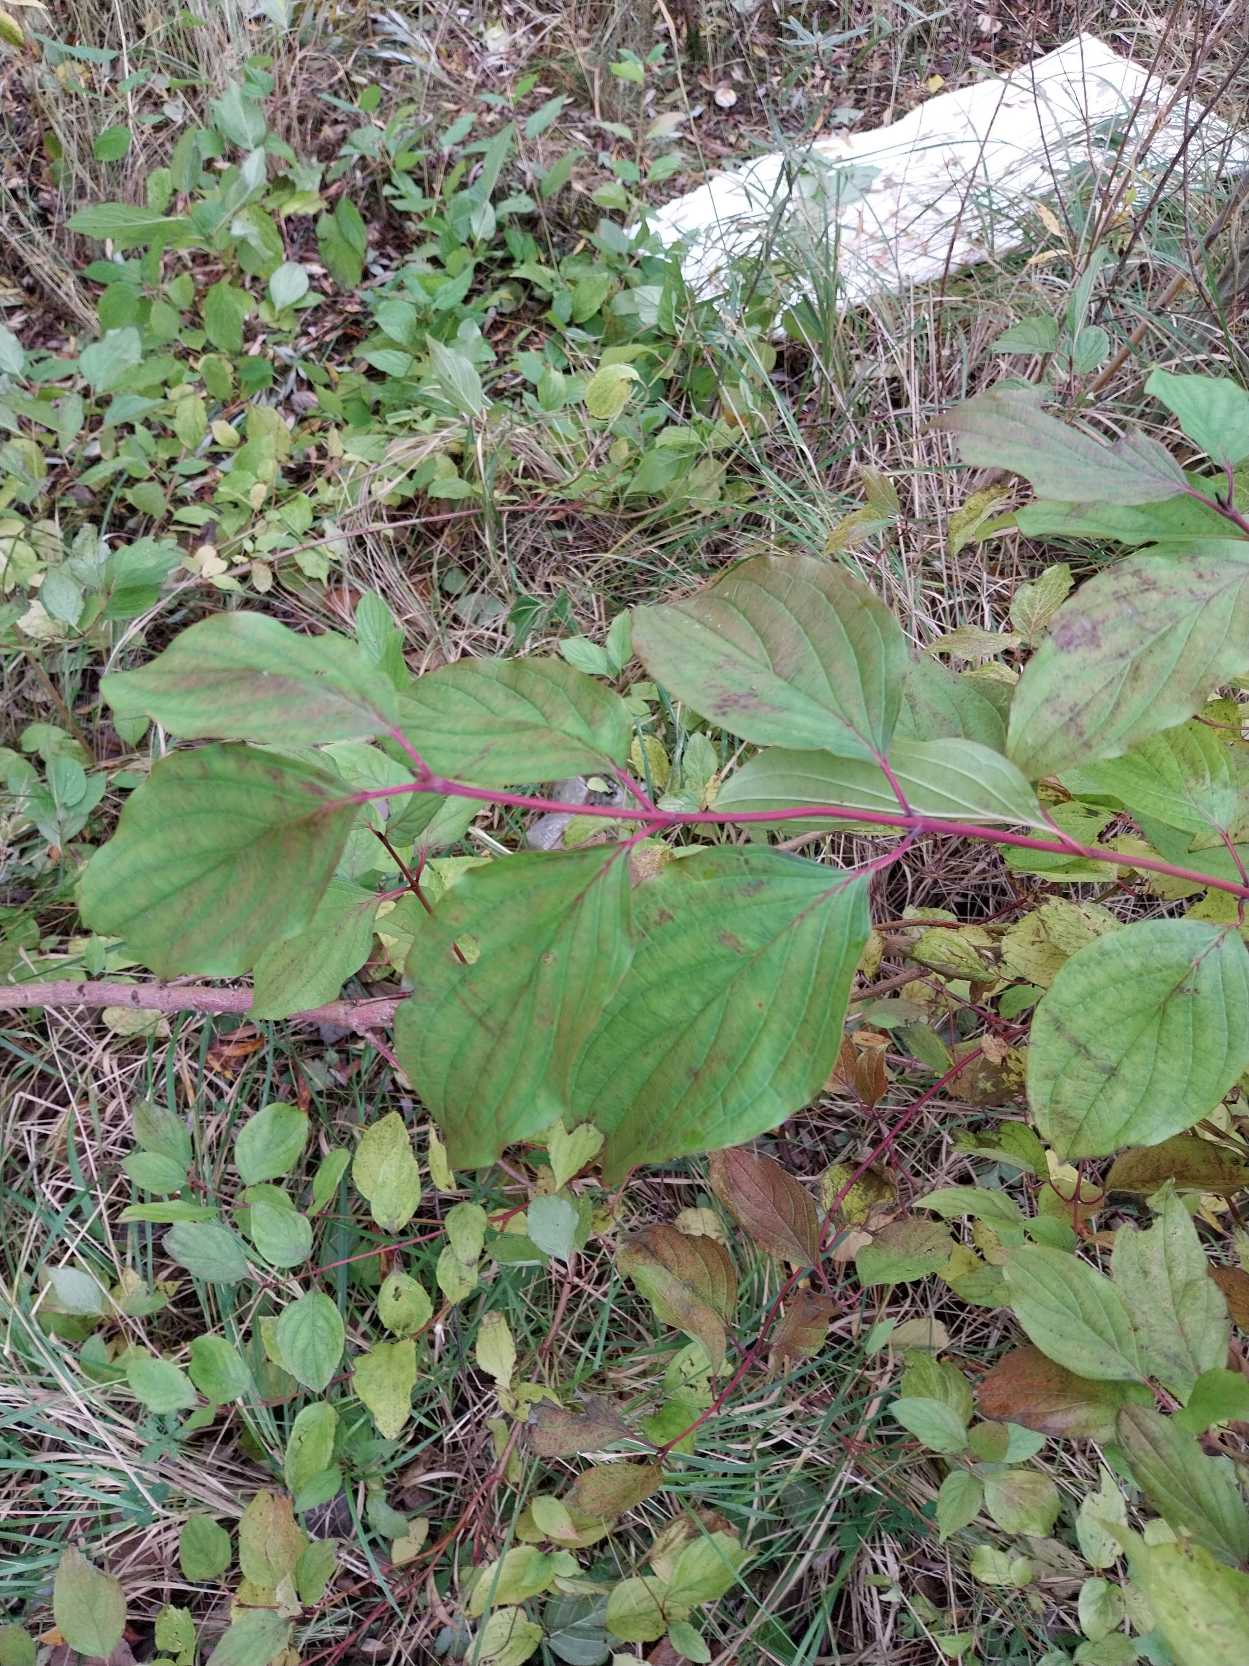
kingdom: Plantae
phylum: Tracheophyta
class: Magnoliopsida
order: Cornales
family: Cornaceae
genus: Cornus
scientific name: Cornus sanguinea
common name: Rød kornel
